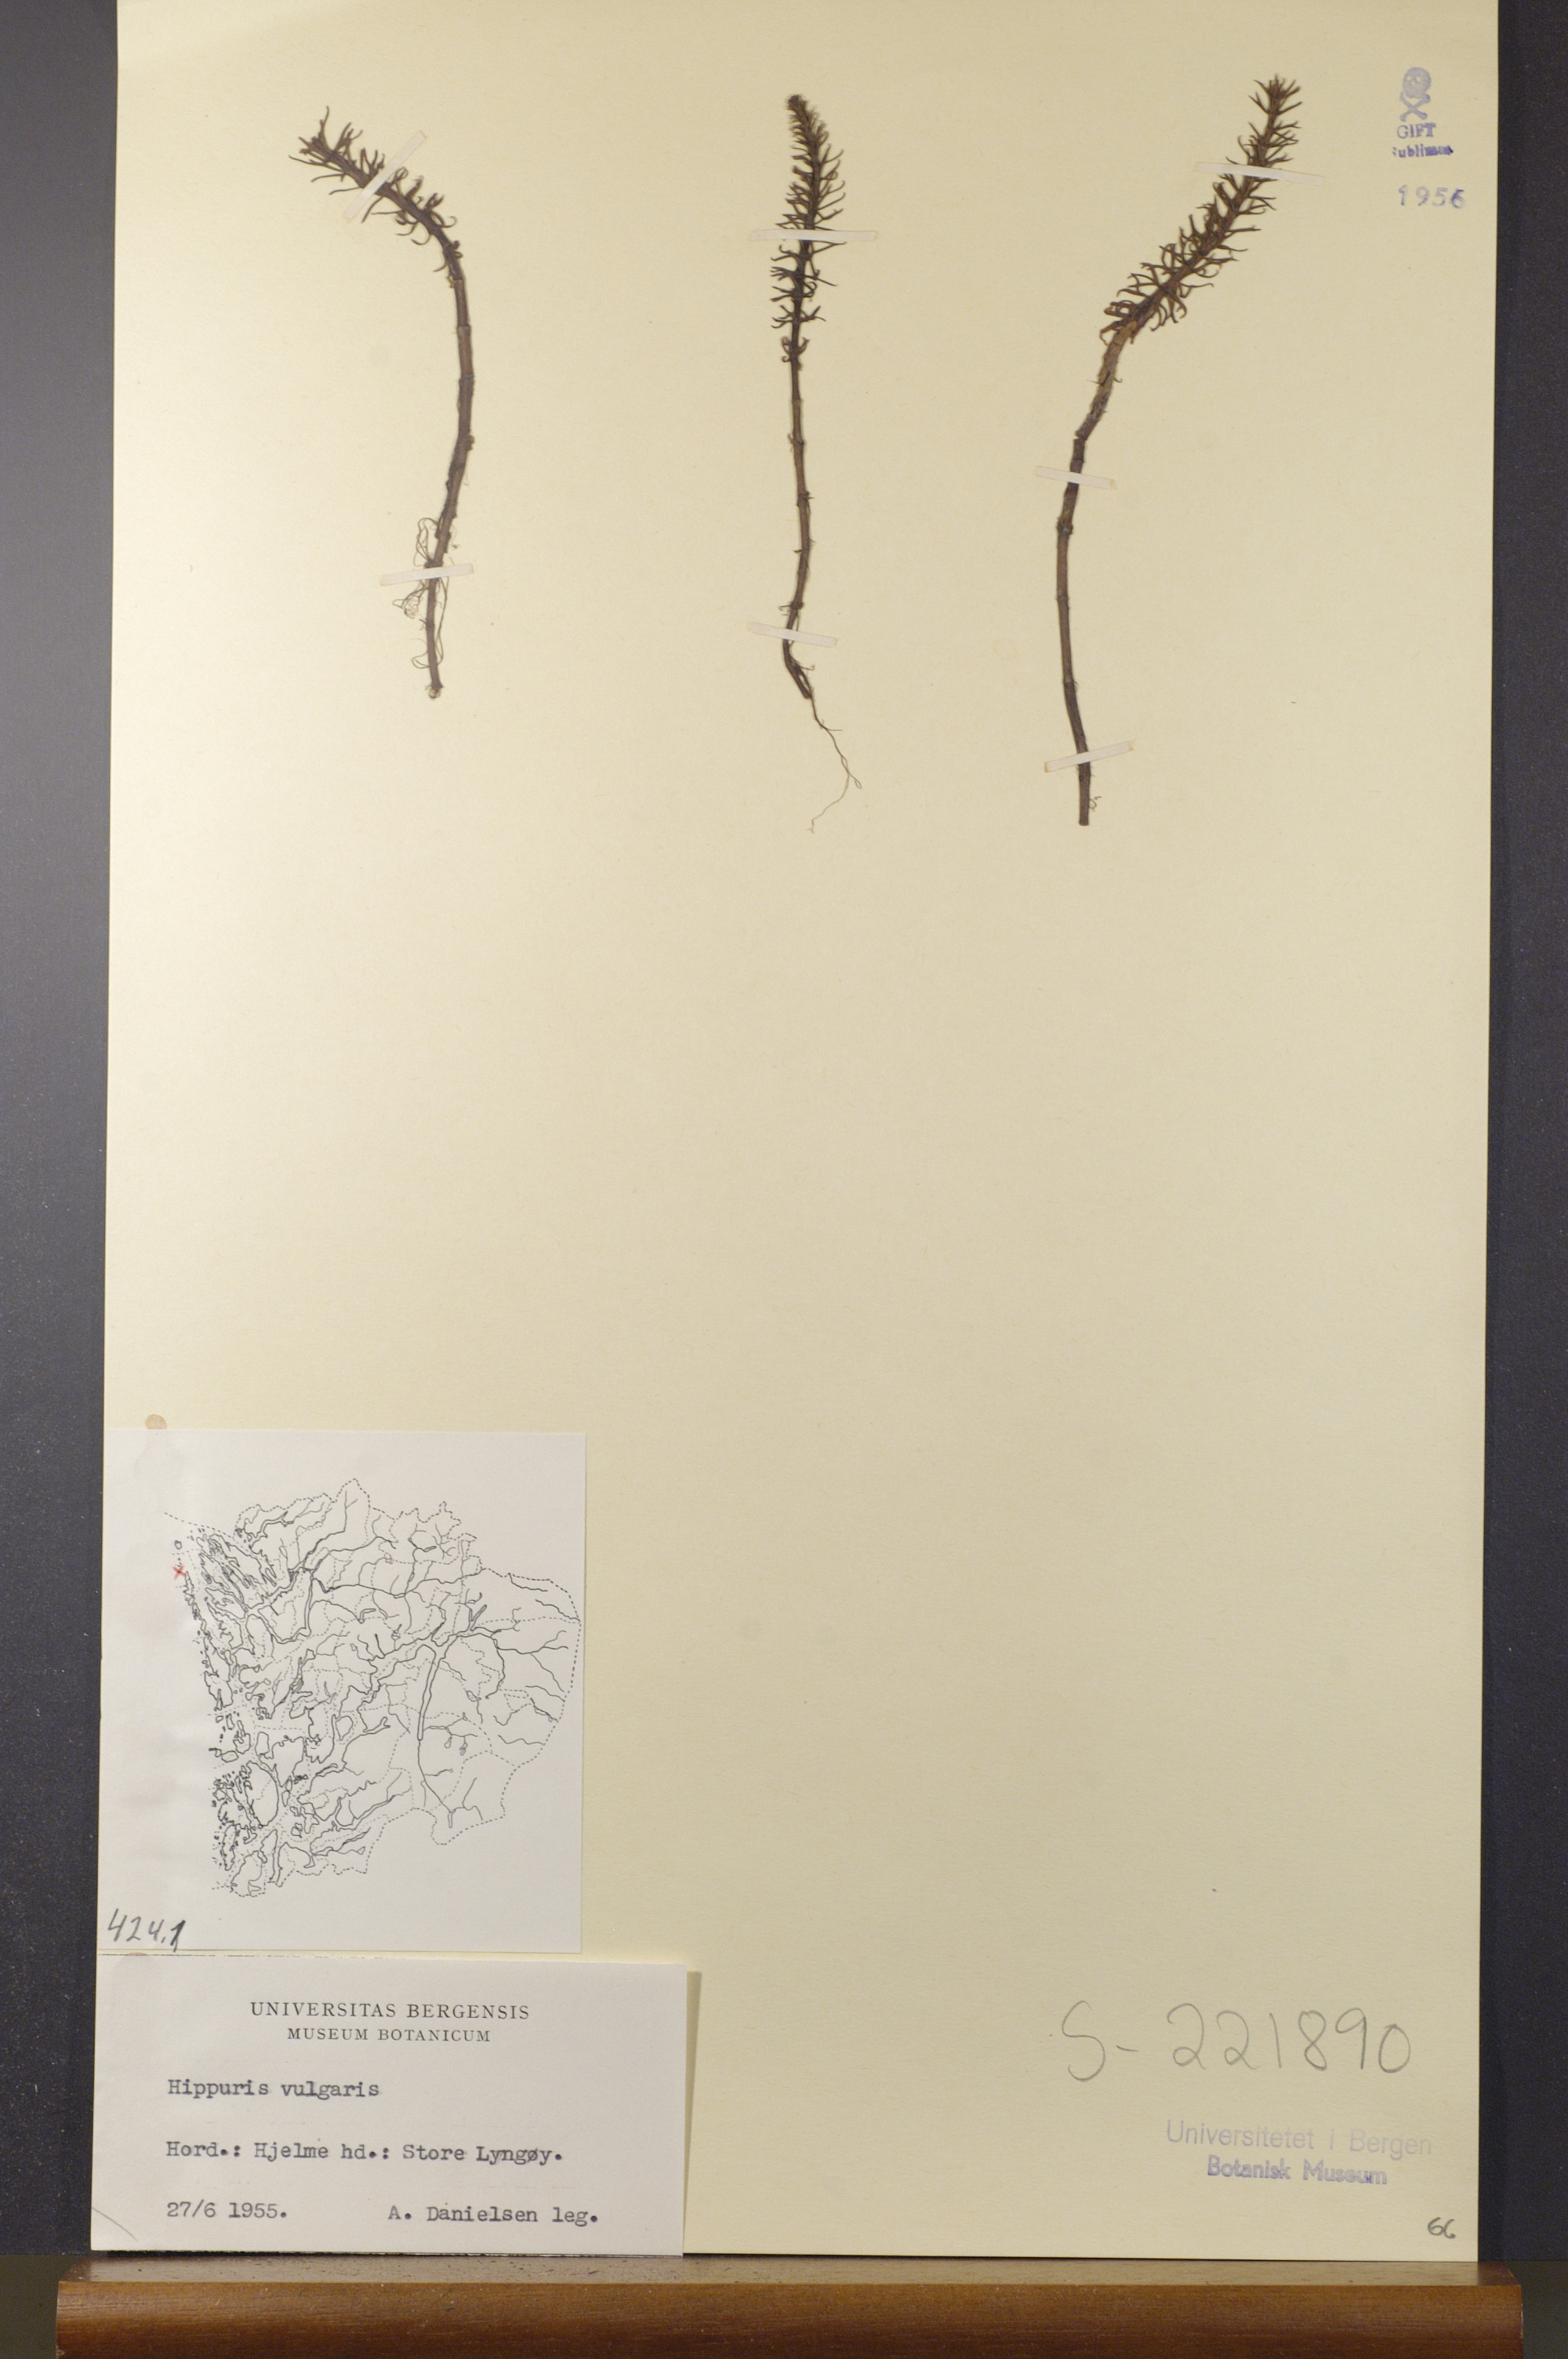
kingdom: Plantae
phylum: Tracheophyta
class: Magnoliopsida
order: Lamiales
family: Plantaginaceae
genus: Hippuris
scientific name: Hippuris vulgaris
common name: Mare's-tail
